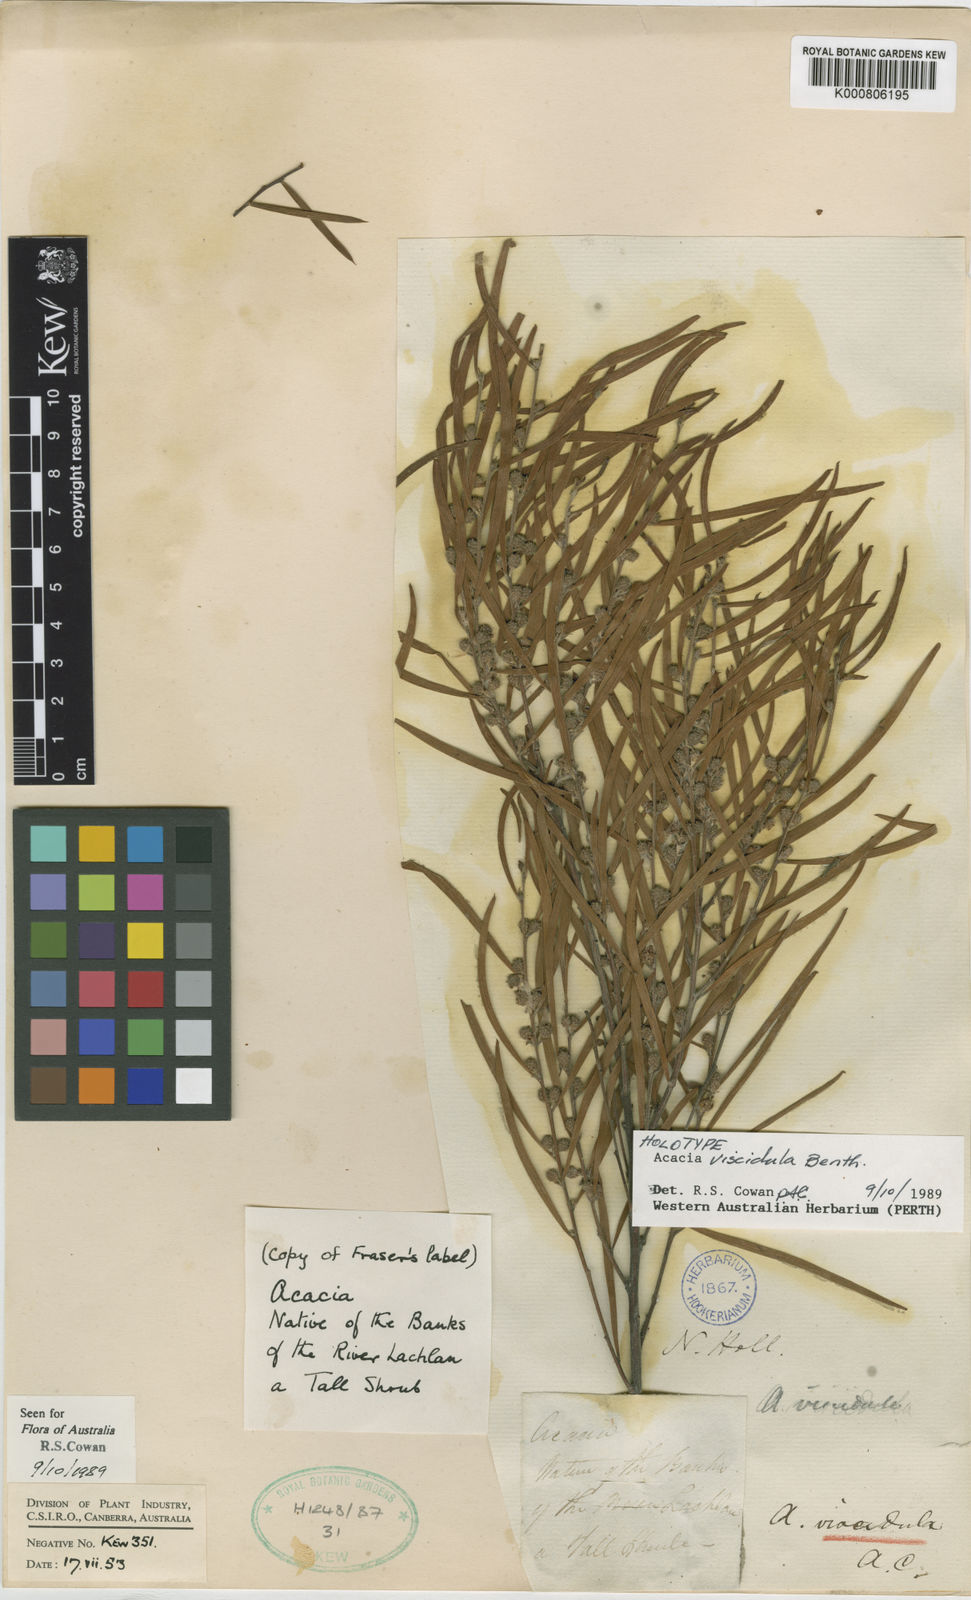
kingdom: Plantae
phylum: Tracheophyta
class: Magnoliopsida
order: Fabales
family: Fabaceae
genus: Acacia
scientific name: Acacia viscidula
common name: Sticky wattle
